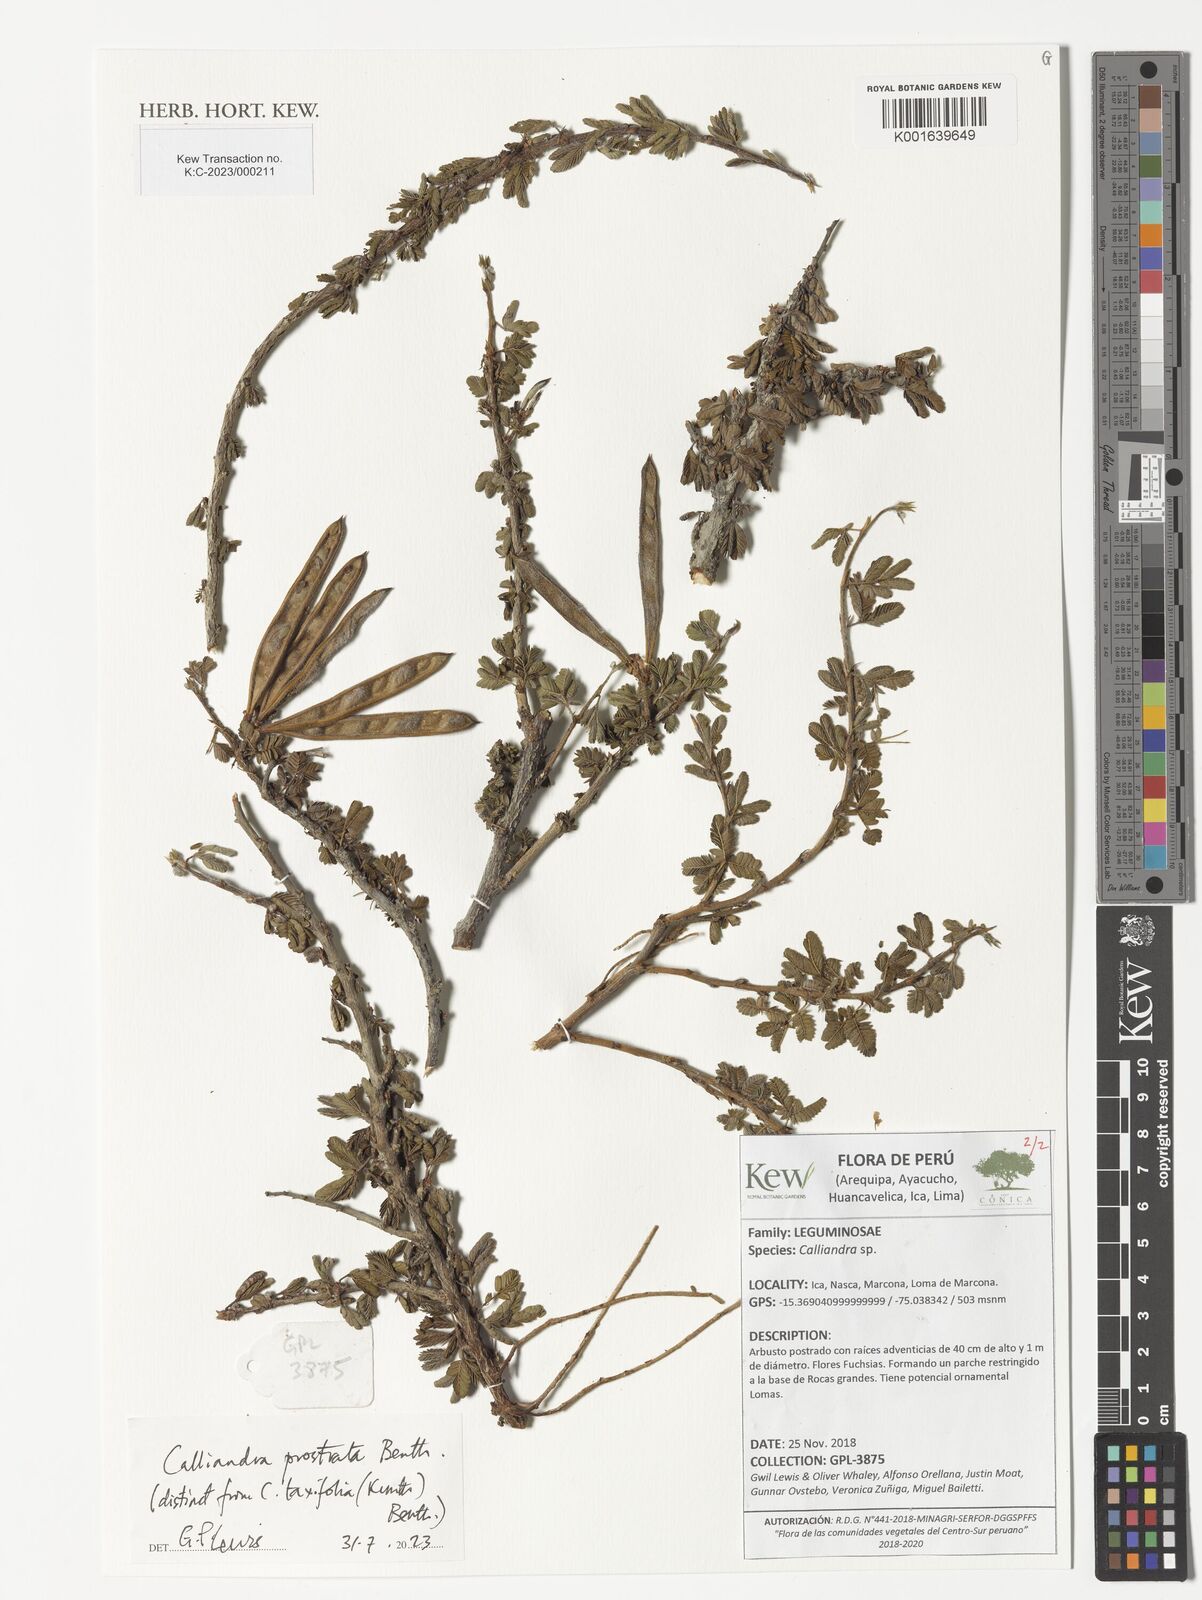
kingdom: Plantae
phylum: Tracheophyta
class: Magnoliopsida
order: Fabales
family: Fabaceae
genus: Calliandra
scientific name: Calliandra taxifolia
